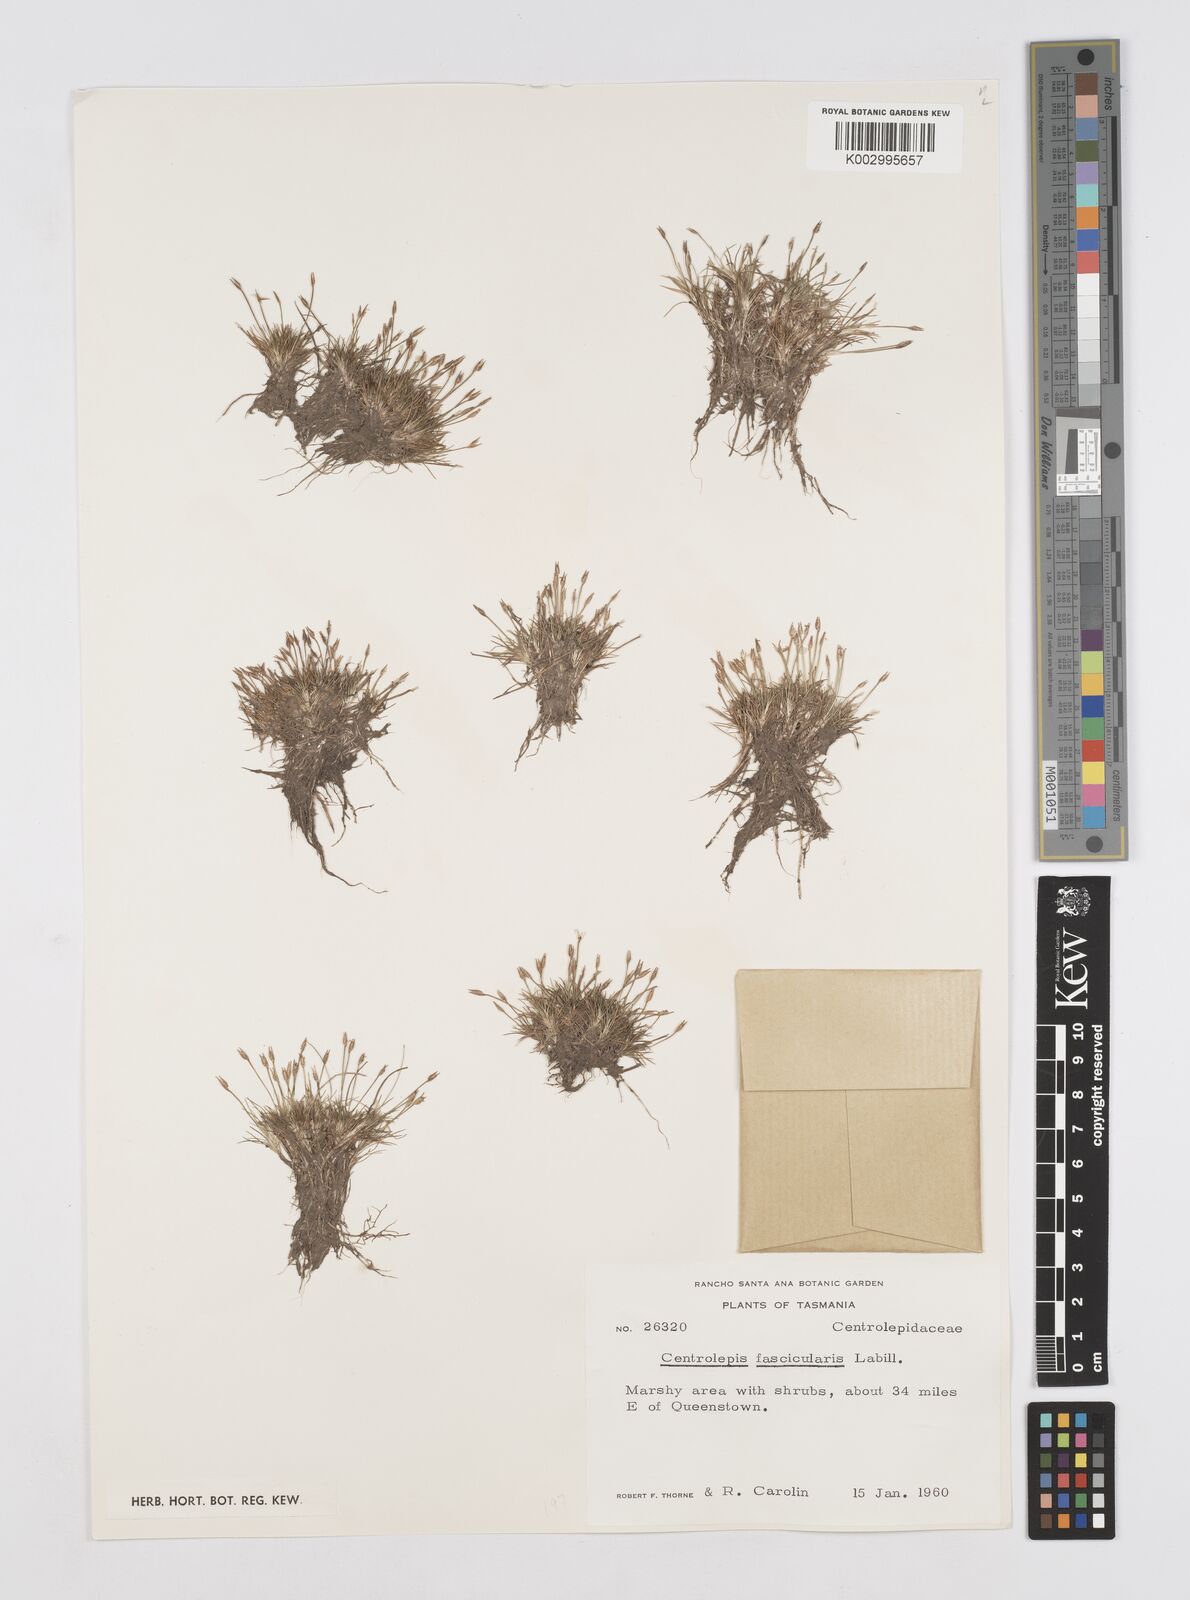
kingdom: Plantae
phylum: Tracheophyta
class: Liliopsida
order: Poales
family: Restionaceae
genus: Centrolepis
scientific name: Centrolepis fascicularis
